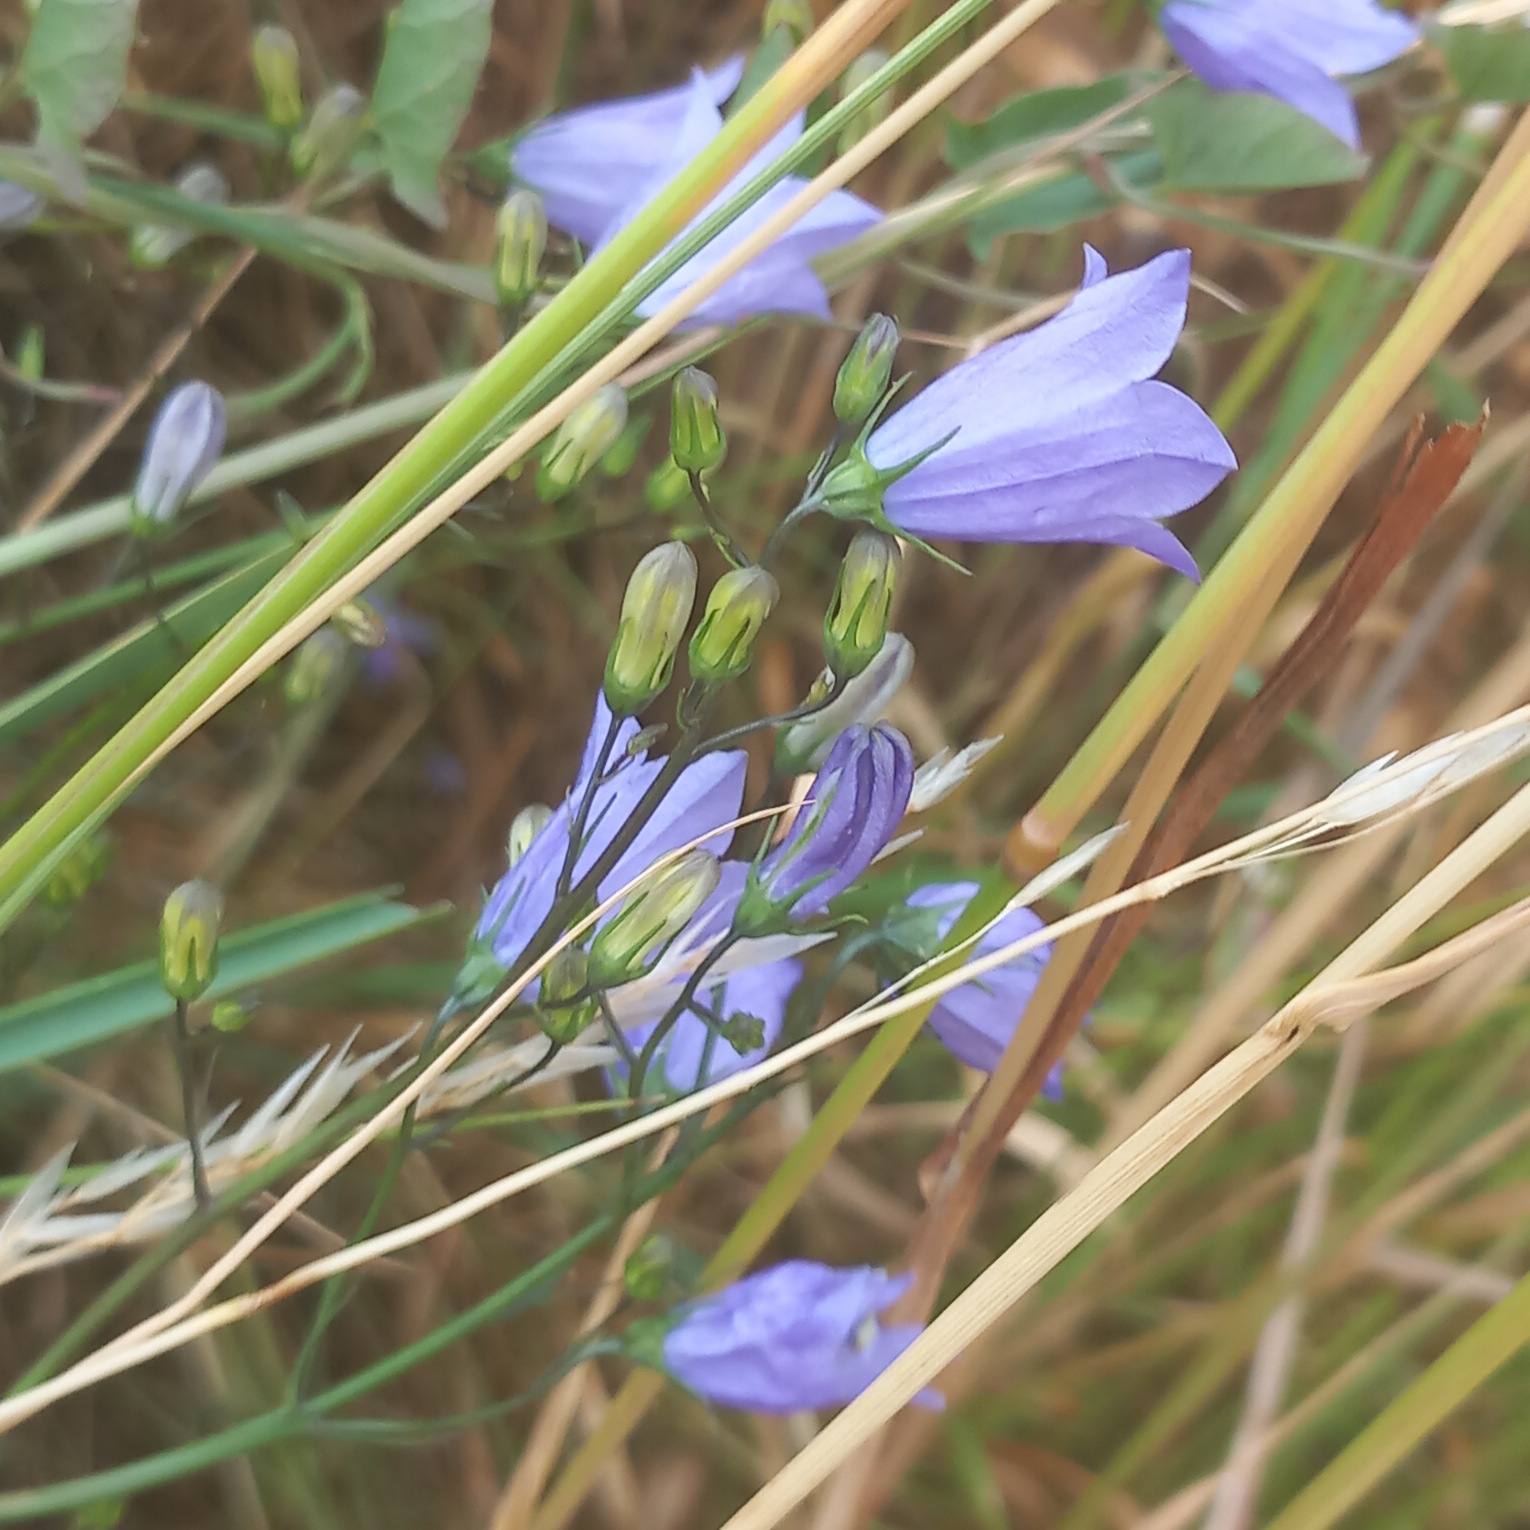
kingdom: Plantae
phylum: Tracheophyta
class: Magnoliopsida
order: Asterales
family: Campanulaceae
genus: Campanula
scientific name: Campanula rotundifolia
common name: Liden klokke
